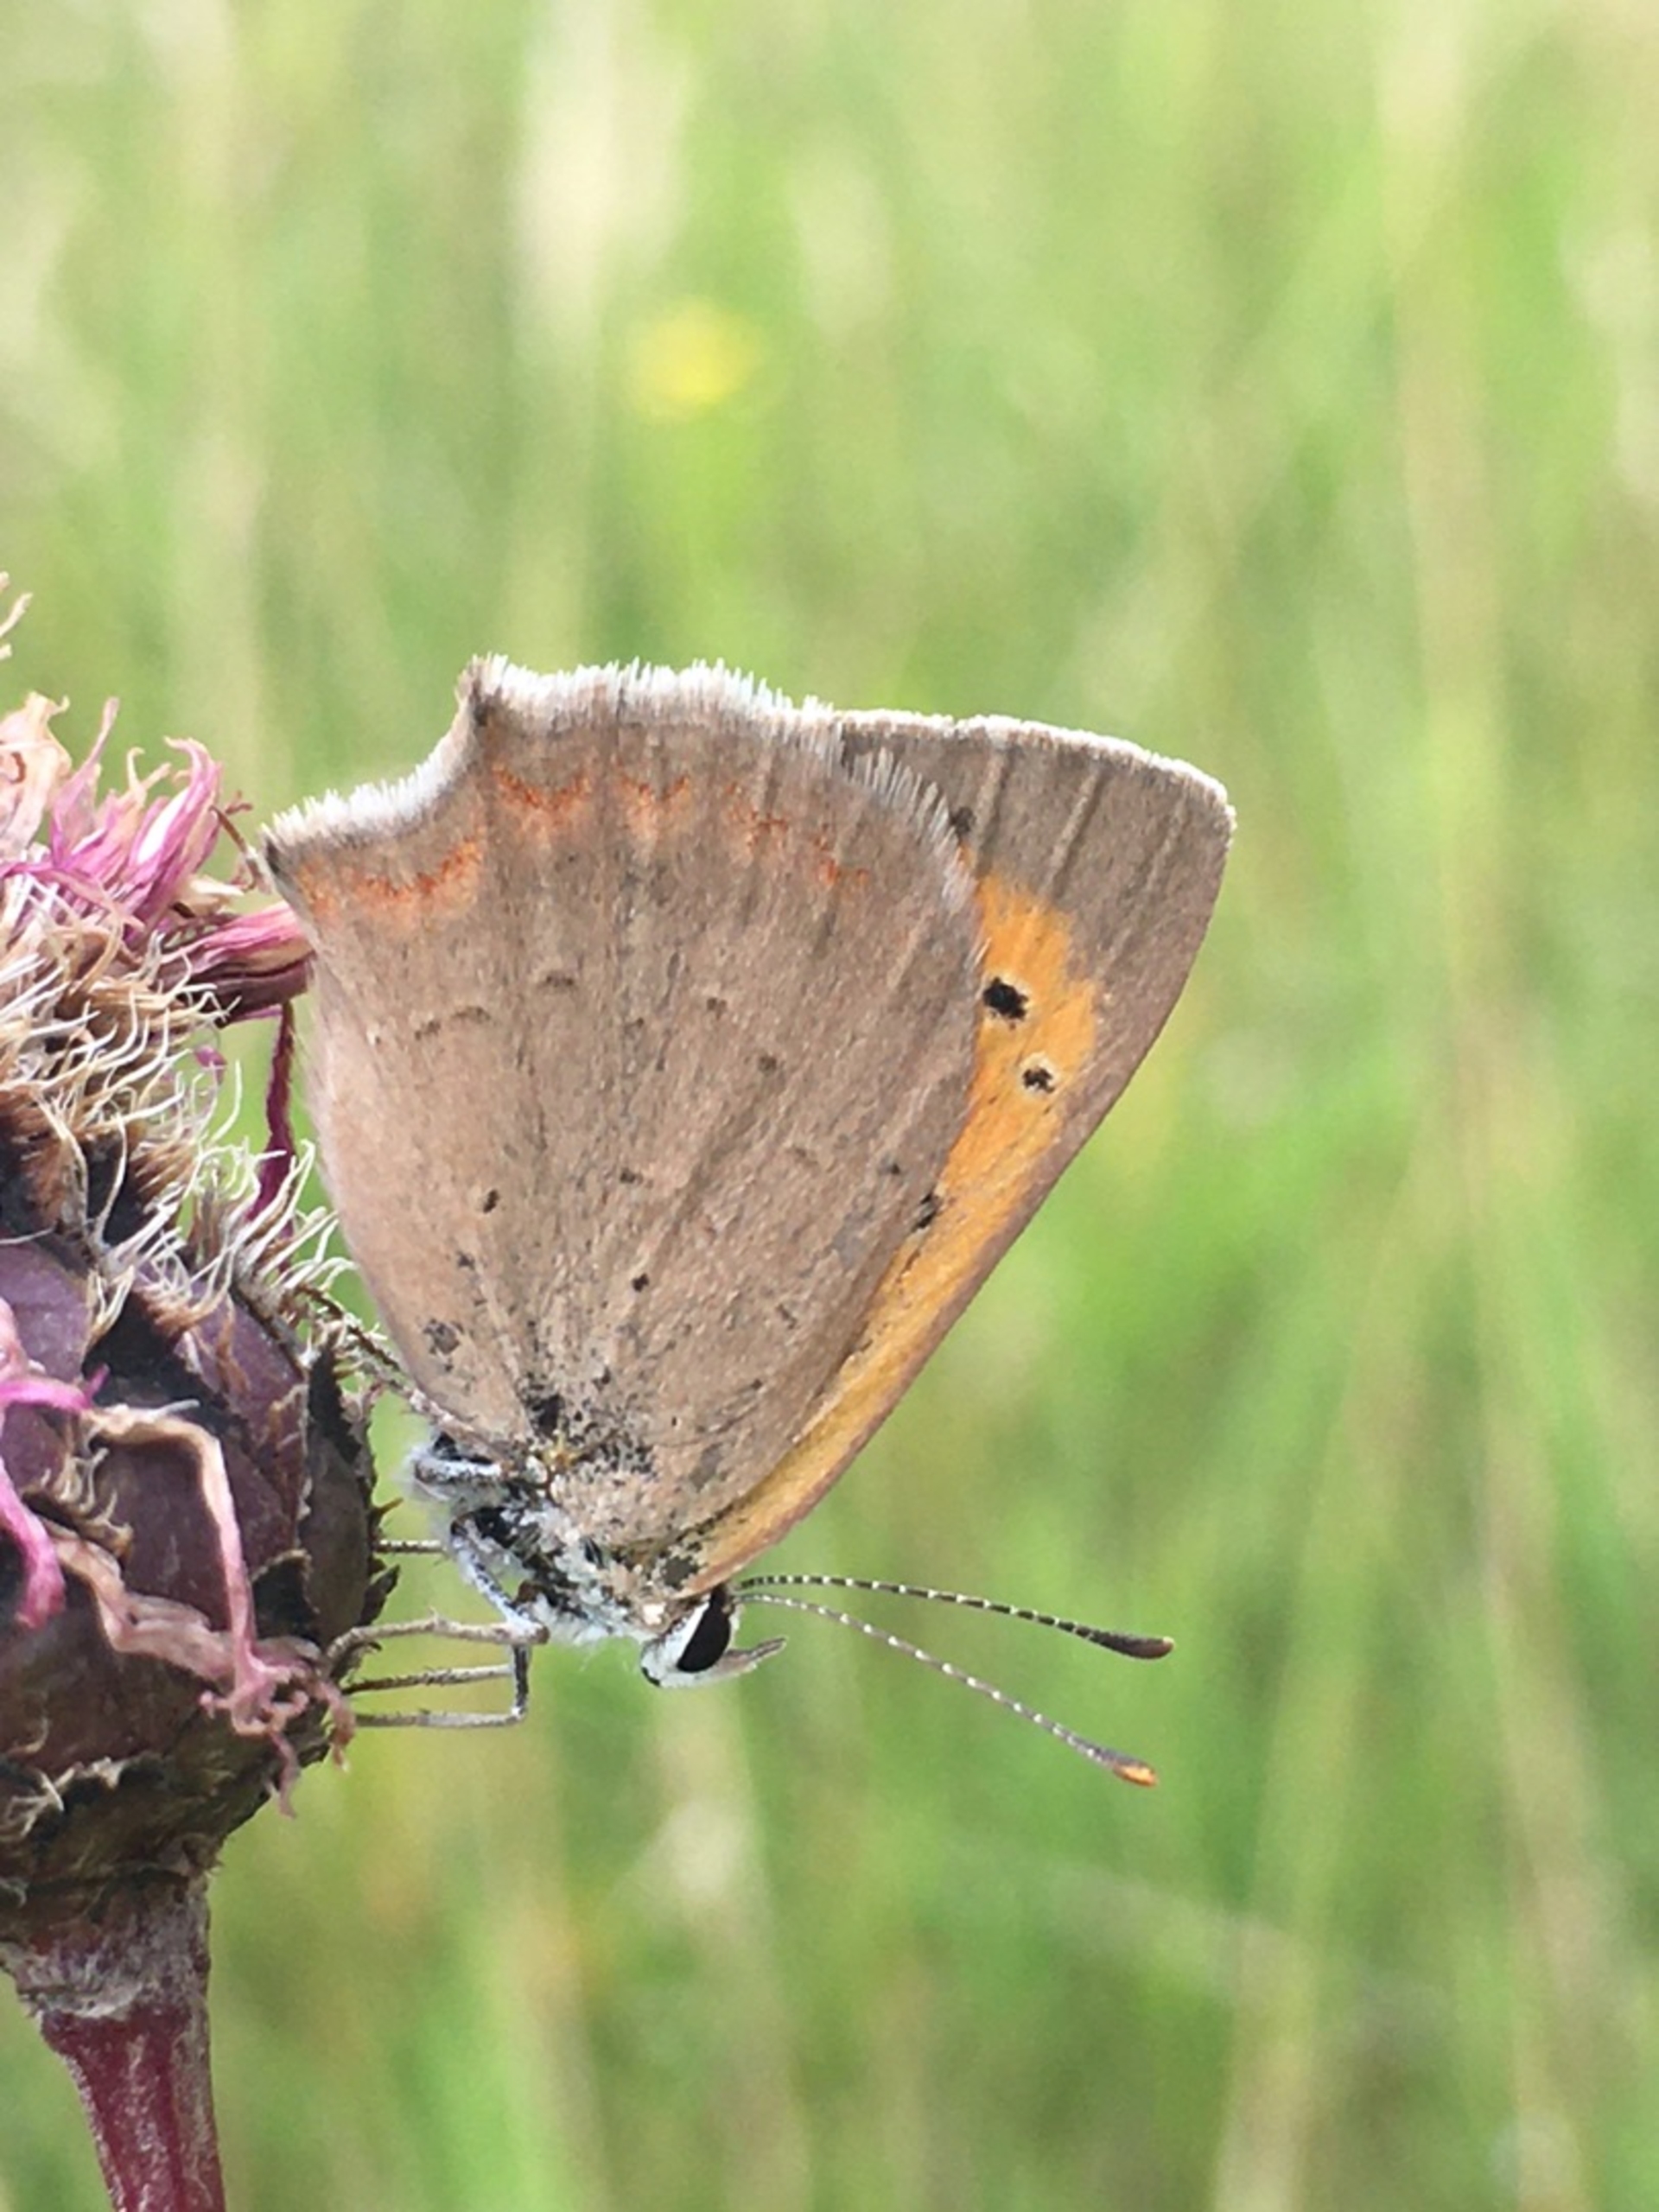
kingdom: Animalia
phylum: Arthropoda
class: Insecta
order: Lepidoptera
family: Lycaenidae
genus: Lycaena
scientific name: Lycaena phlaeas
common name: Lille ildfugl
